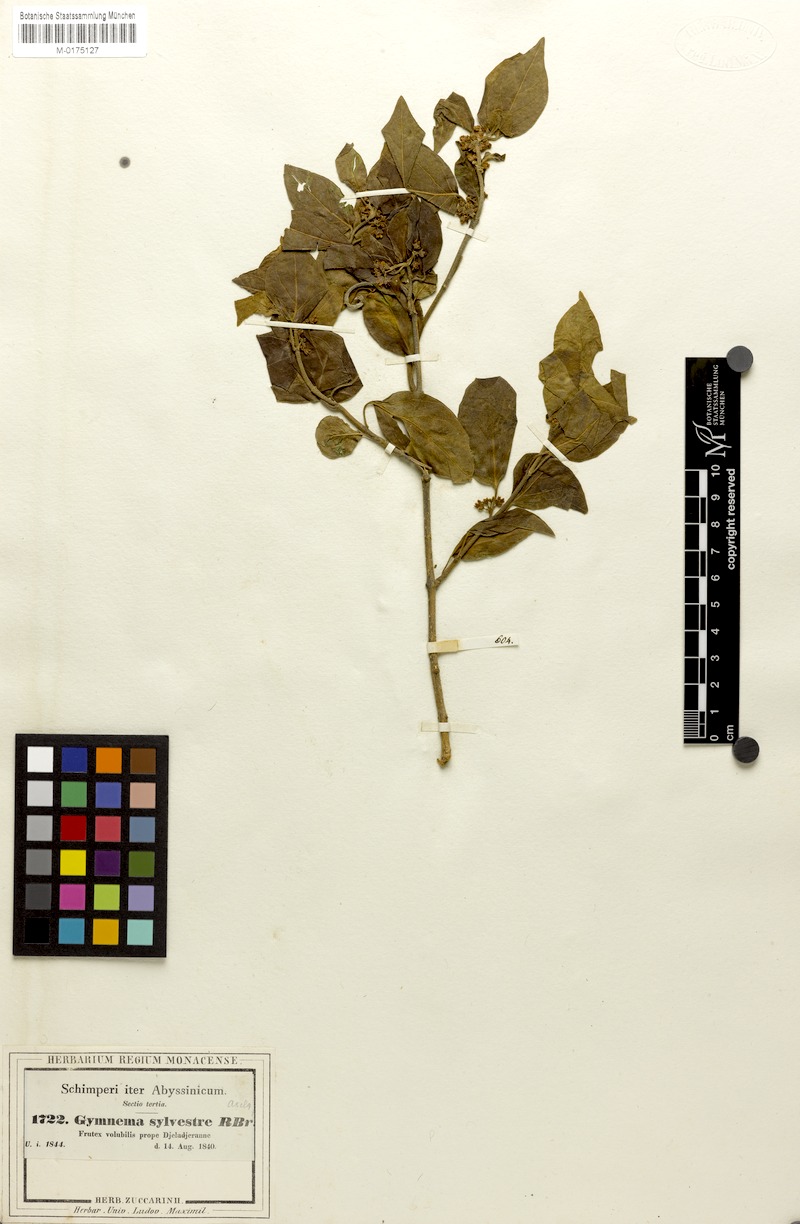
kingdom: Plantae
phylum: Tracheophyta
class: Magnoliopsida
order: Gentianales
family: Apocynaceae
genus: Gymnema
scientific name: Gymnema sylvestre
